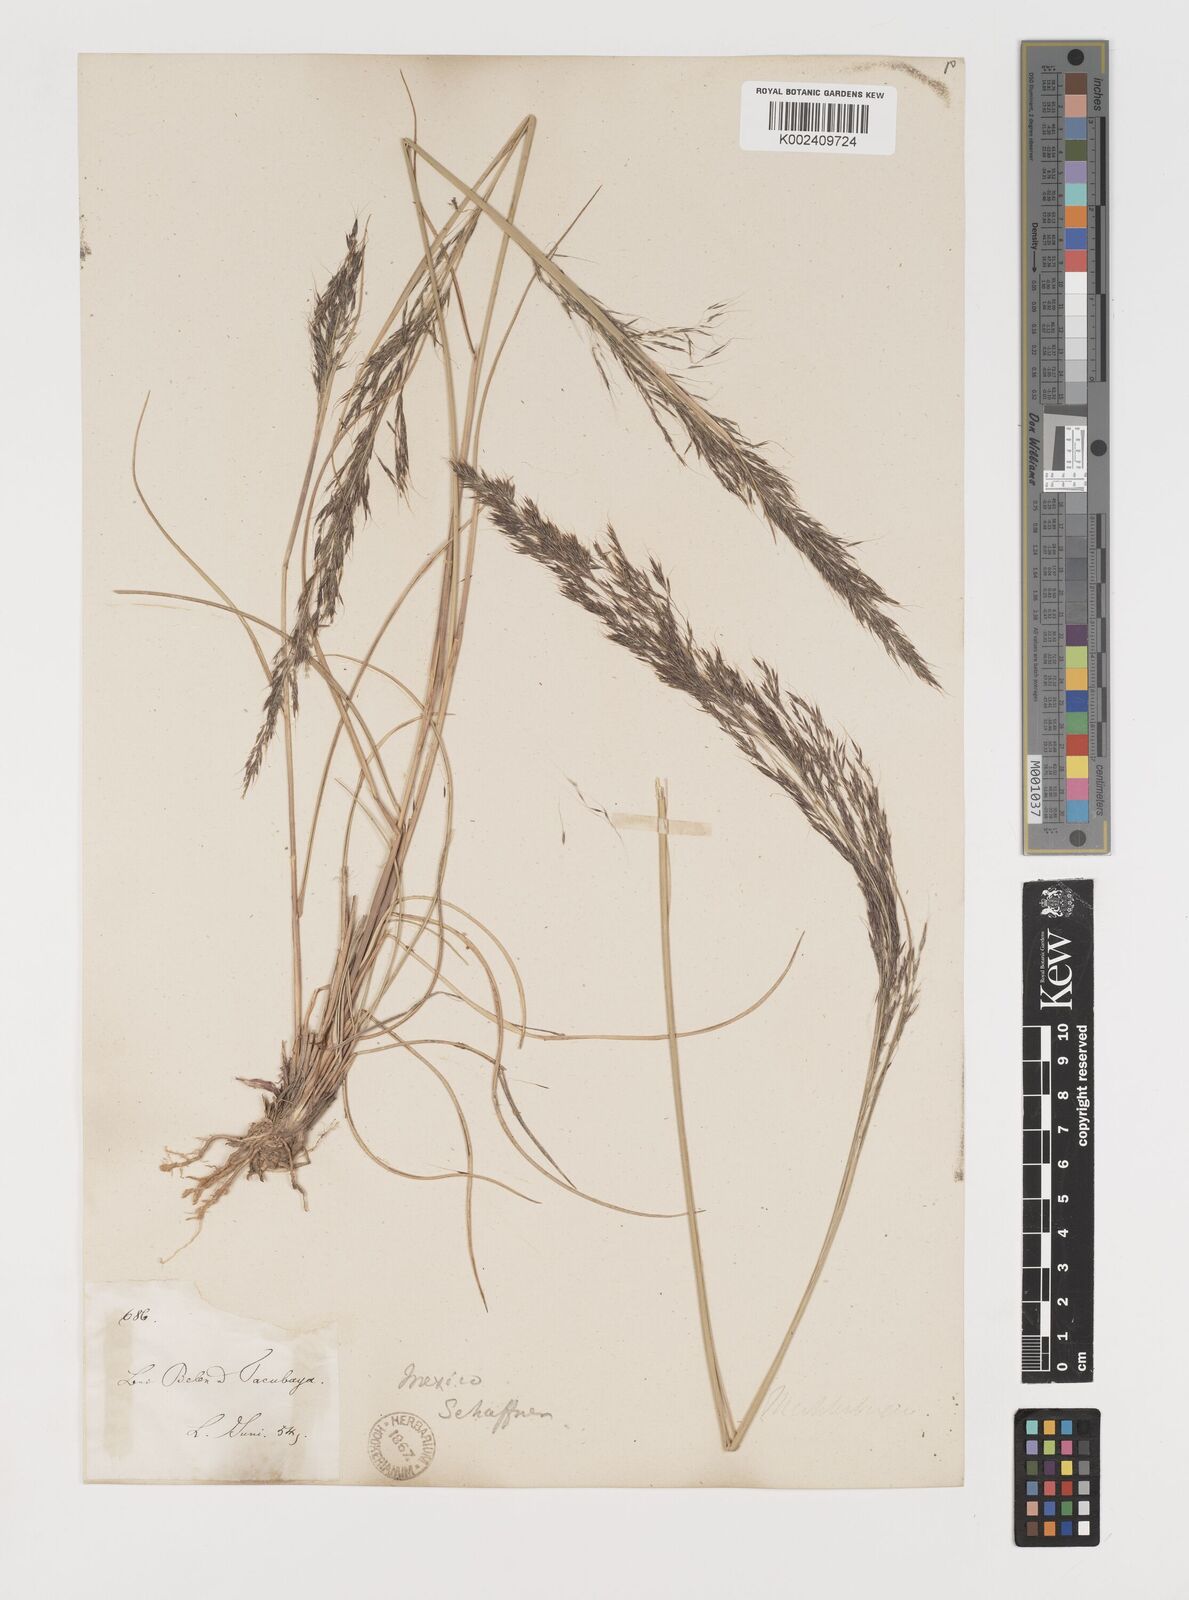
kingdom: Plantae
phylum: Tracheophyta
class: Liliopsida
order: Poales
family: Poaceae
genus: Muhlenbergia
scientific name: Muhlenbergia rigida
